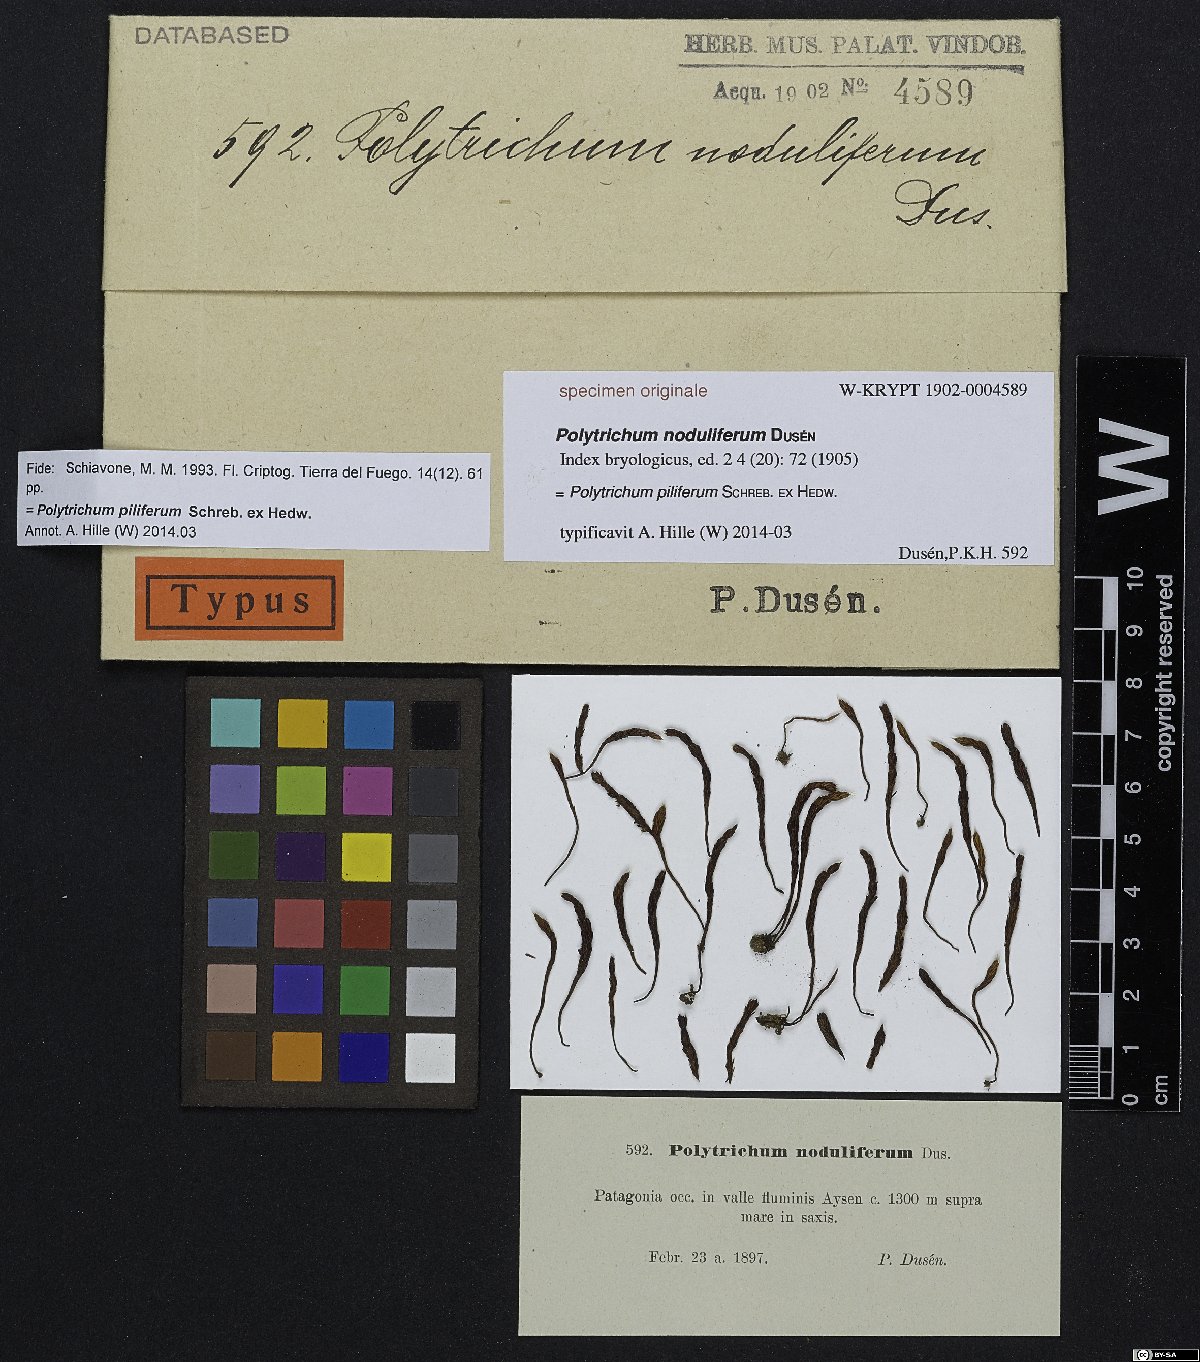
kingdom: Plantae
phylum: Bryophyta
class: Polytrichopsida
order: Polytrichales
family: Polytrichaceae
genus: Polytrichum
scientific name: Polytrichum juniperinum
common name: Juniper haircap moss
